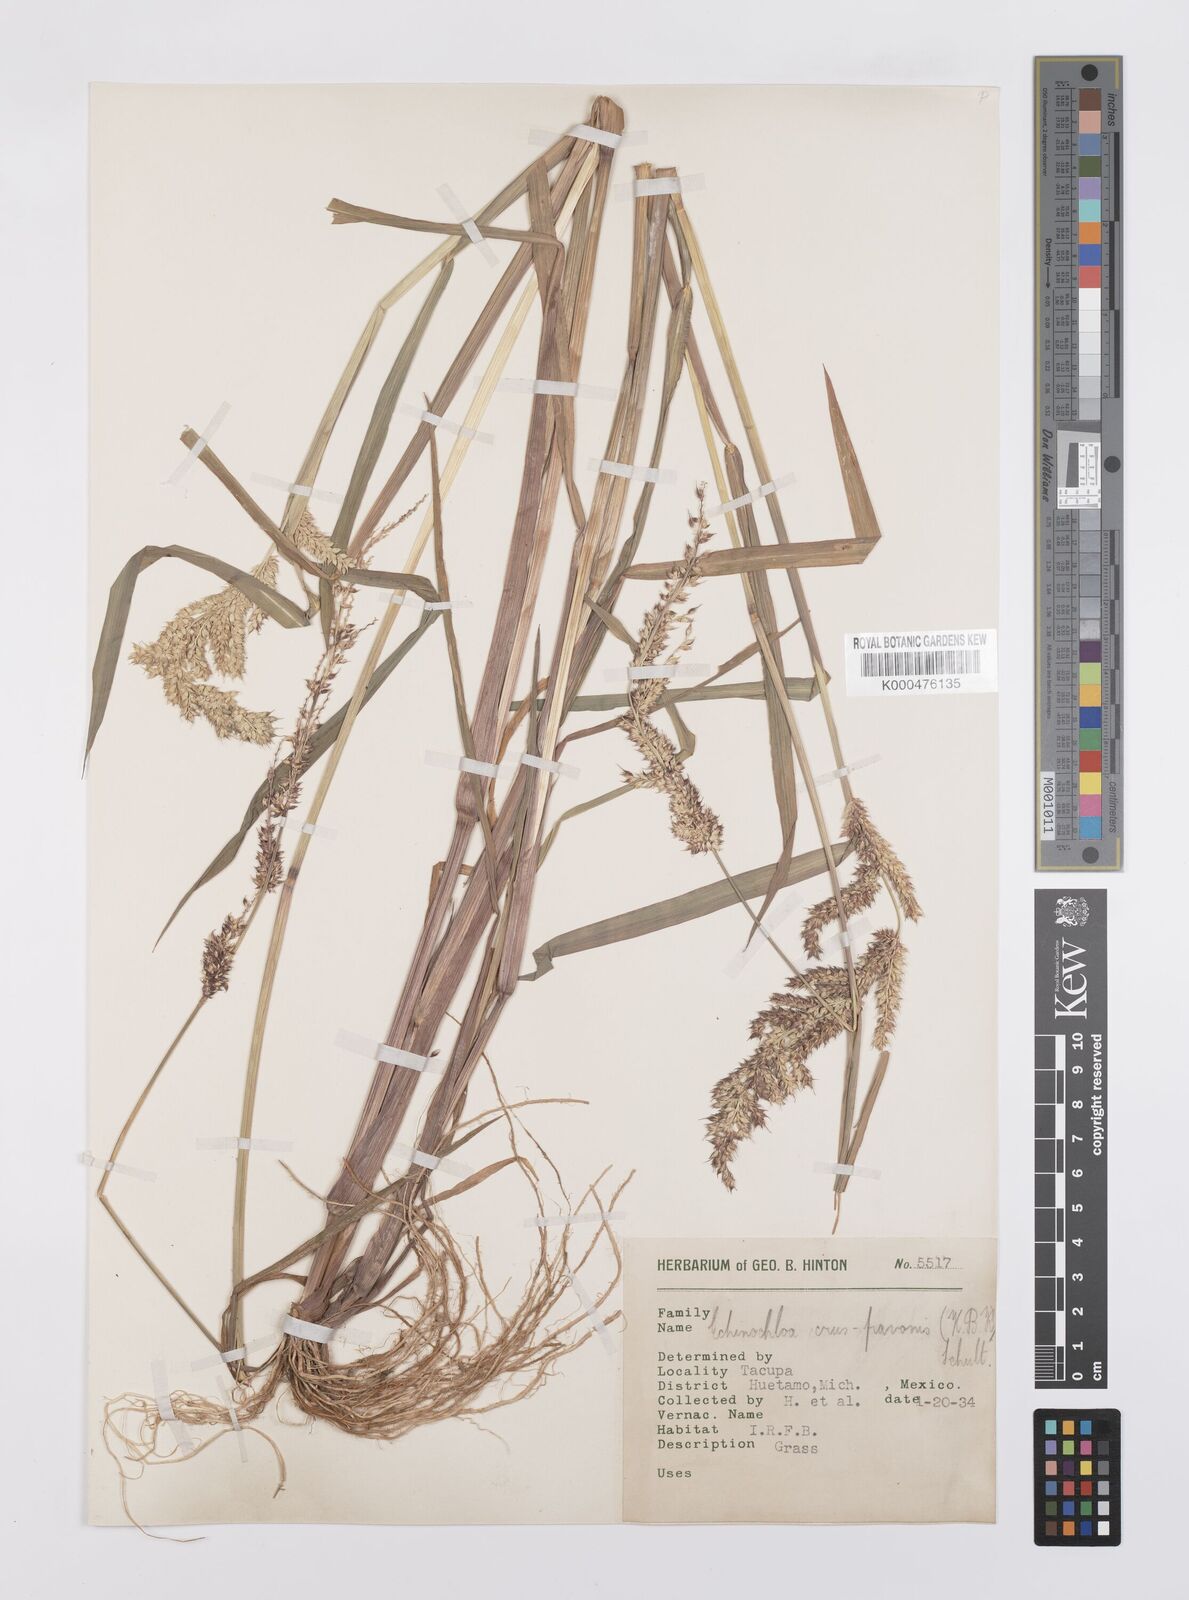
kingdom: Plantae
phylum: Tracheophyta
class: Liliopsida
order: Poales
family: Poaceae
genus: Echinochloa
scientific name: Echinochloa crus-pavonis
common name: Gulf cockspur grass
